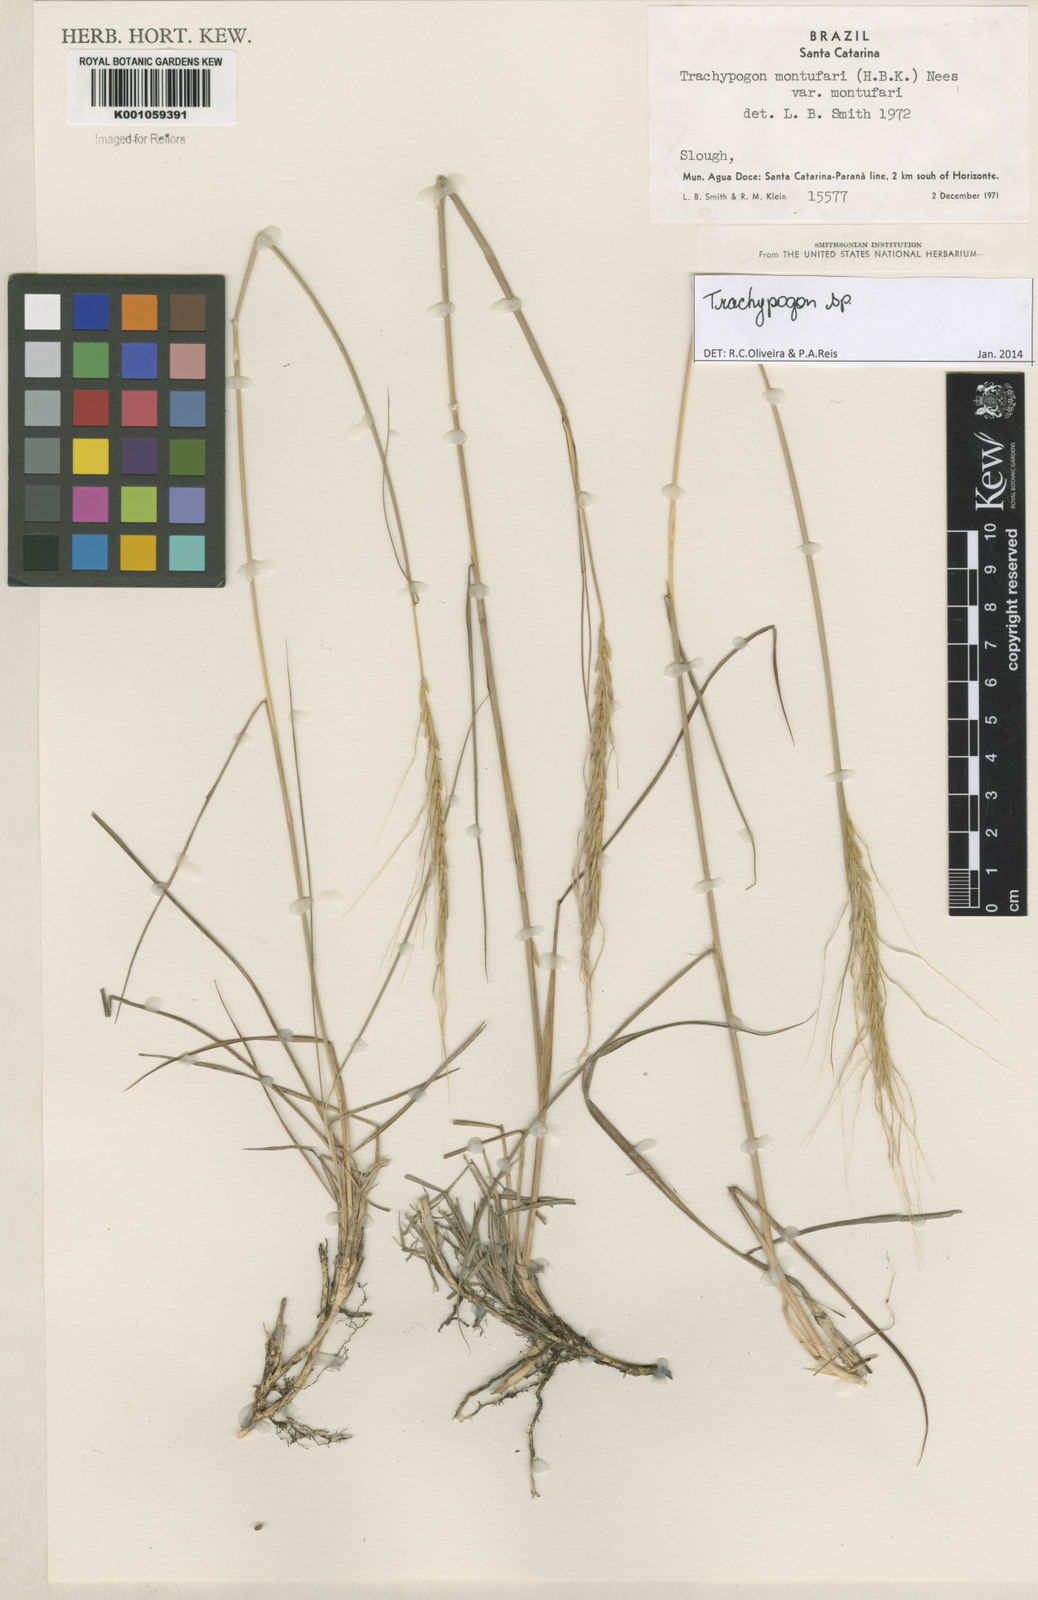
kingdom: Plantae
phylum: Tracheophyta
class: Liliopsida
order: Poales
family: Poaceae
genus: Trachypogon
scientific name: Trachypogon
